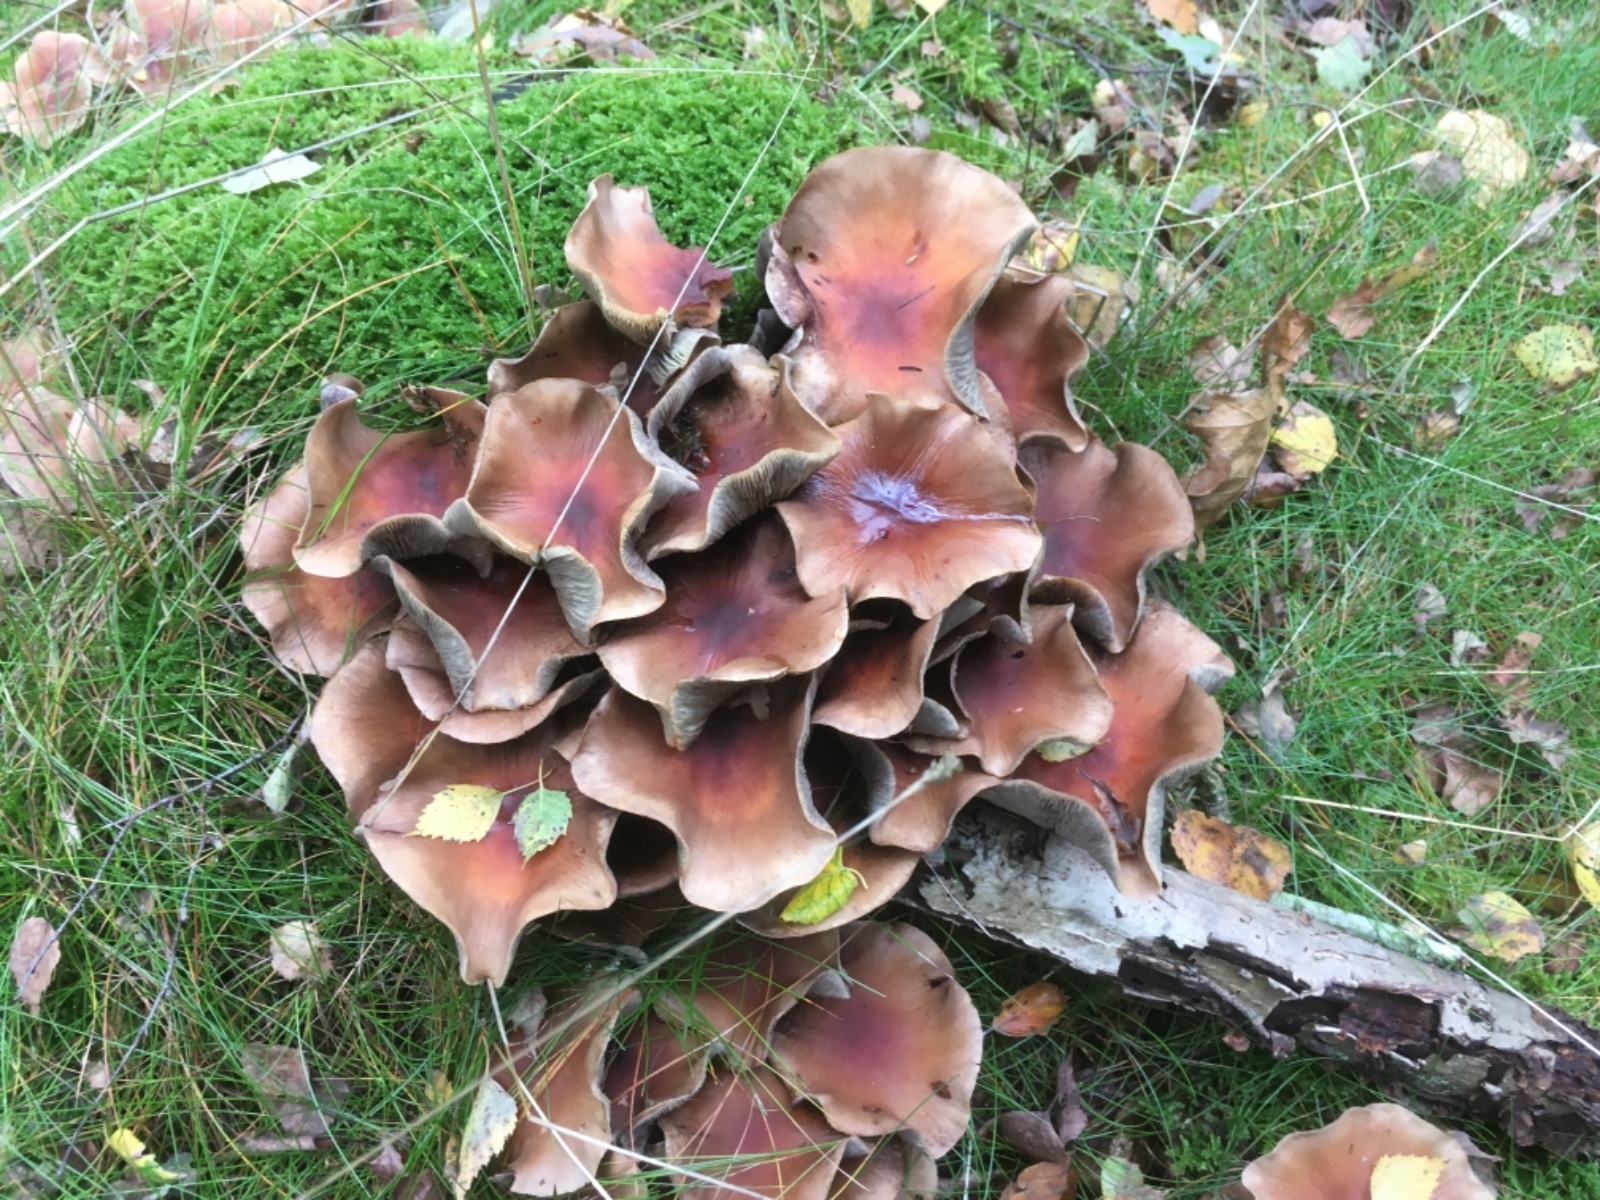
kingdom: Fungi
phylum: Basidiomycota
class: Agaricomycetes
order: Agaricales
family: Strophariaceae
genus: Hypholoma
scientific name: Hypholoma
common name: svovlhat
